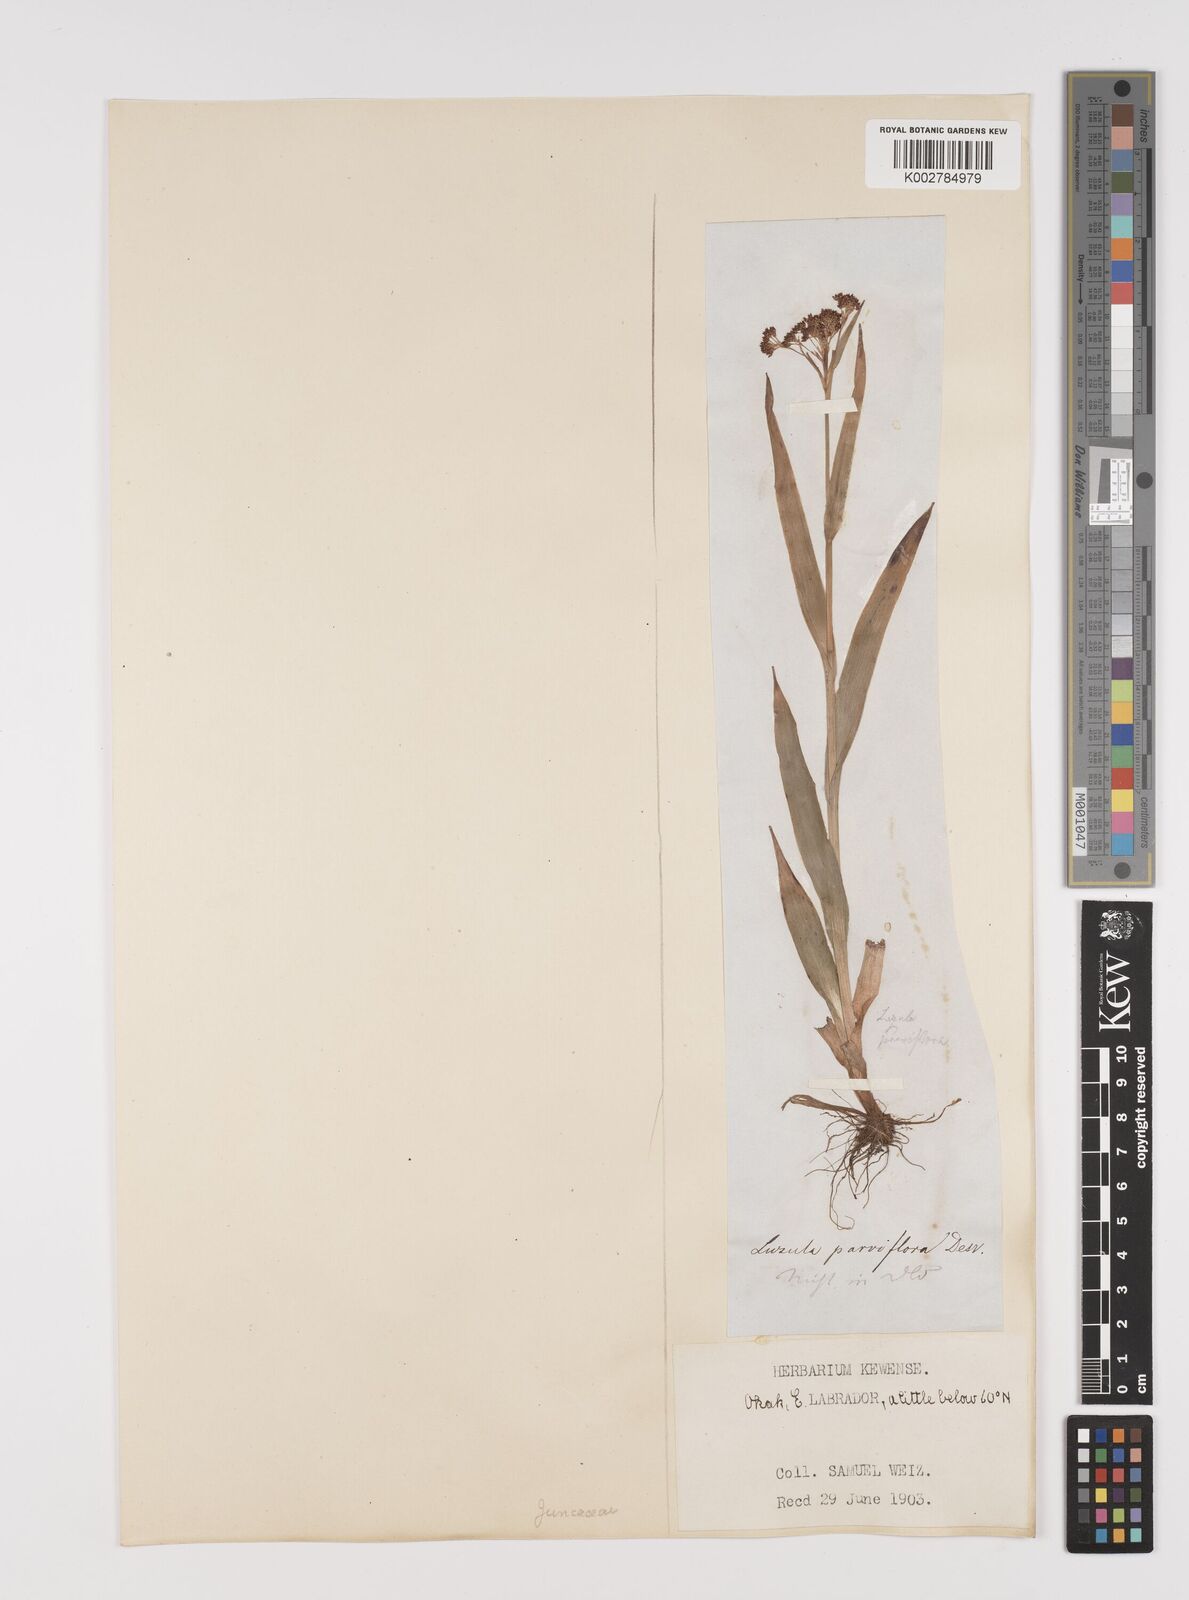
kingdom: Plantae
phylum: Tracheophyta
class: Liliopsida
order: Poales
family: Juncaceae
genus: Luzula
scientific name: Luzula parviflora
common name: Millet woodrush
